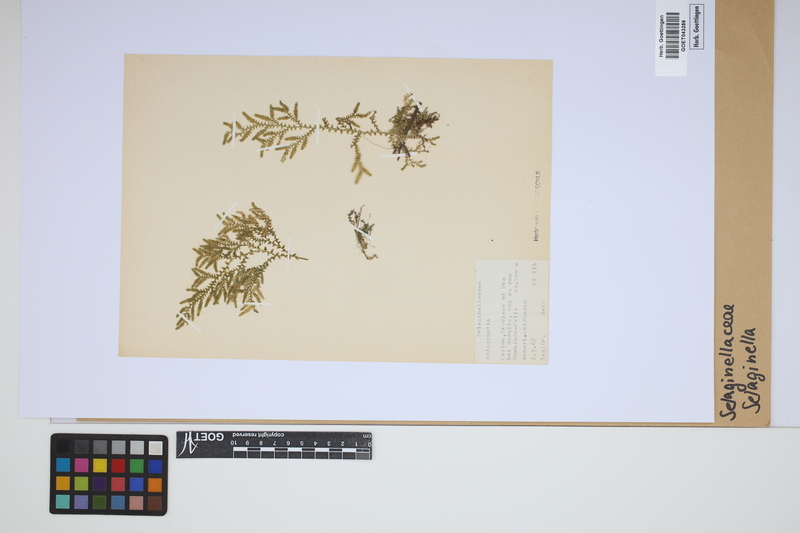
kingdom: Plantae
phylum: Tracheophyta
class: Lycopodiopsida
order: Selaginellales
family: Selaginellaceae
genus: Selaginella
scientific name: Selaginella
